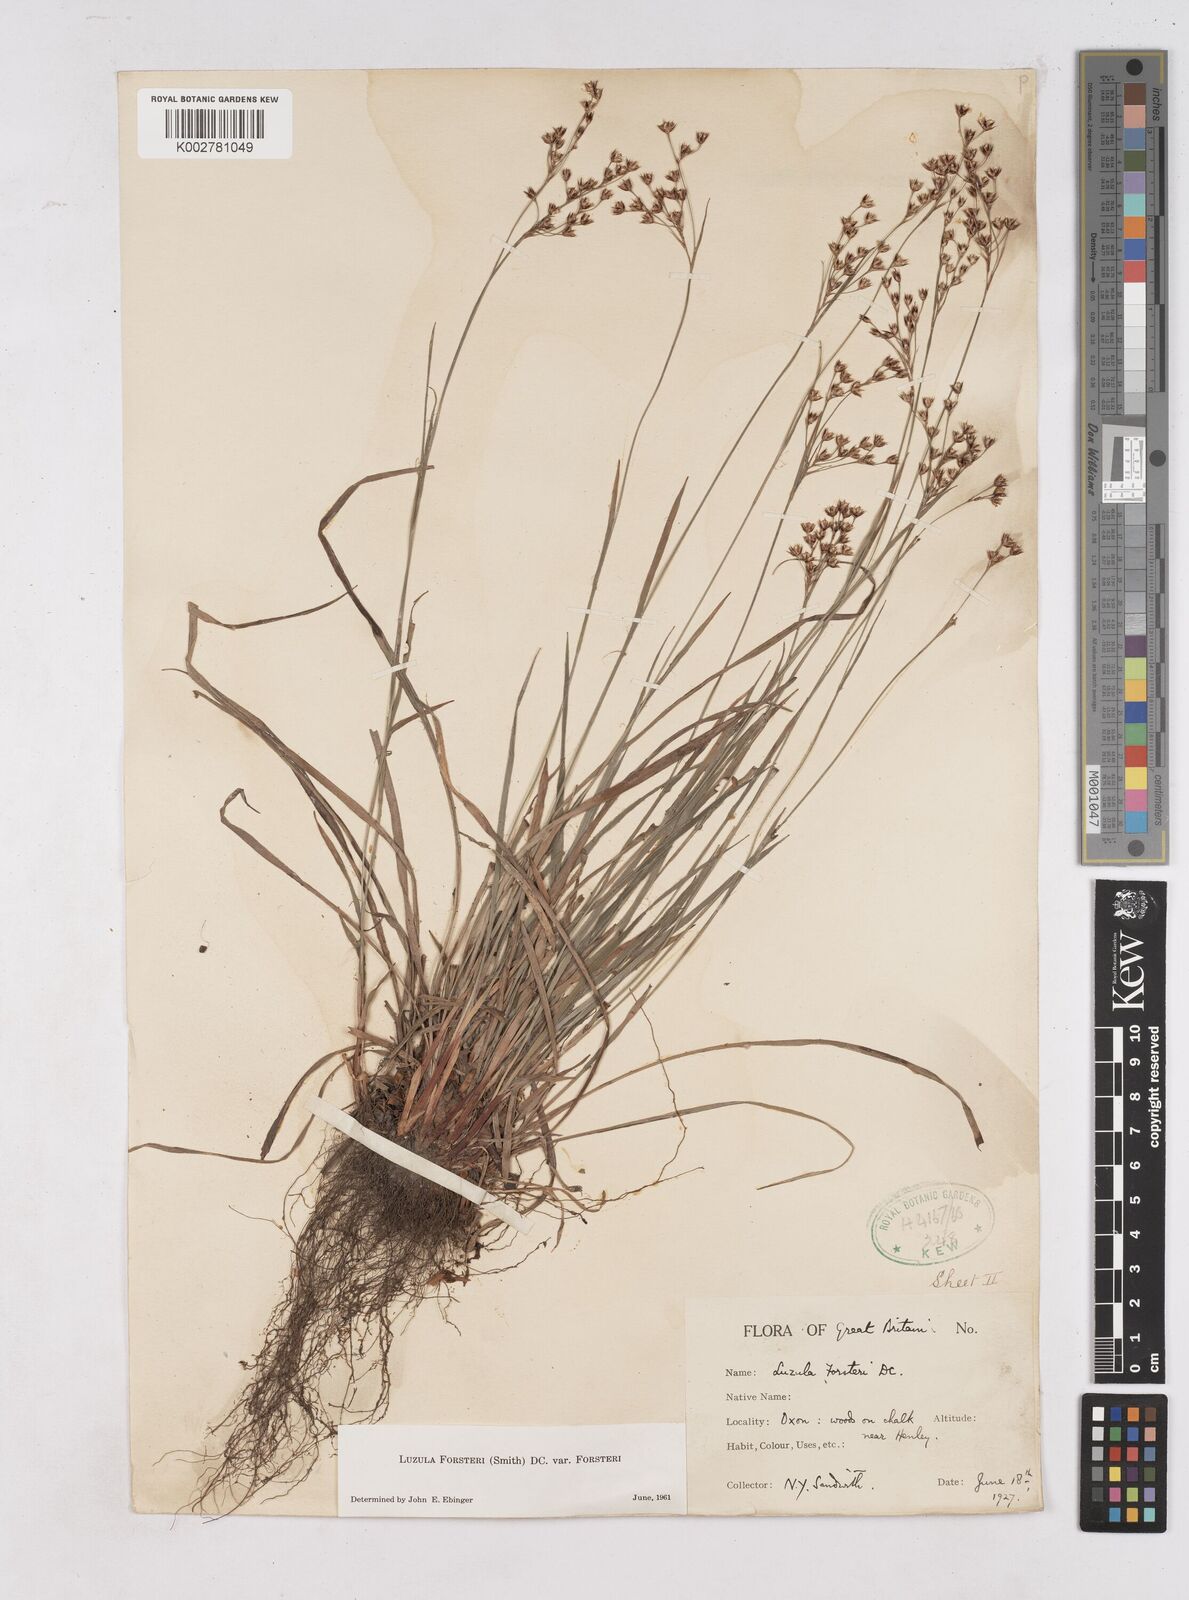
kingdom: Plantae
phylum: Tracheophyta
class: Liliopsida
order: Poales
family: Juncaceae
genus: Luzula
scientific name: Luzula forsteri
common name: Southern wood-rush
